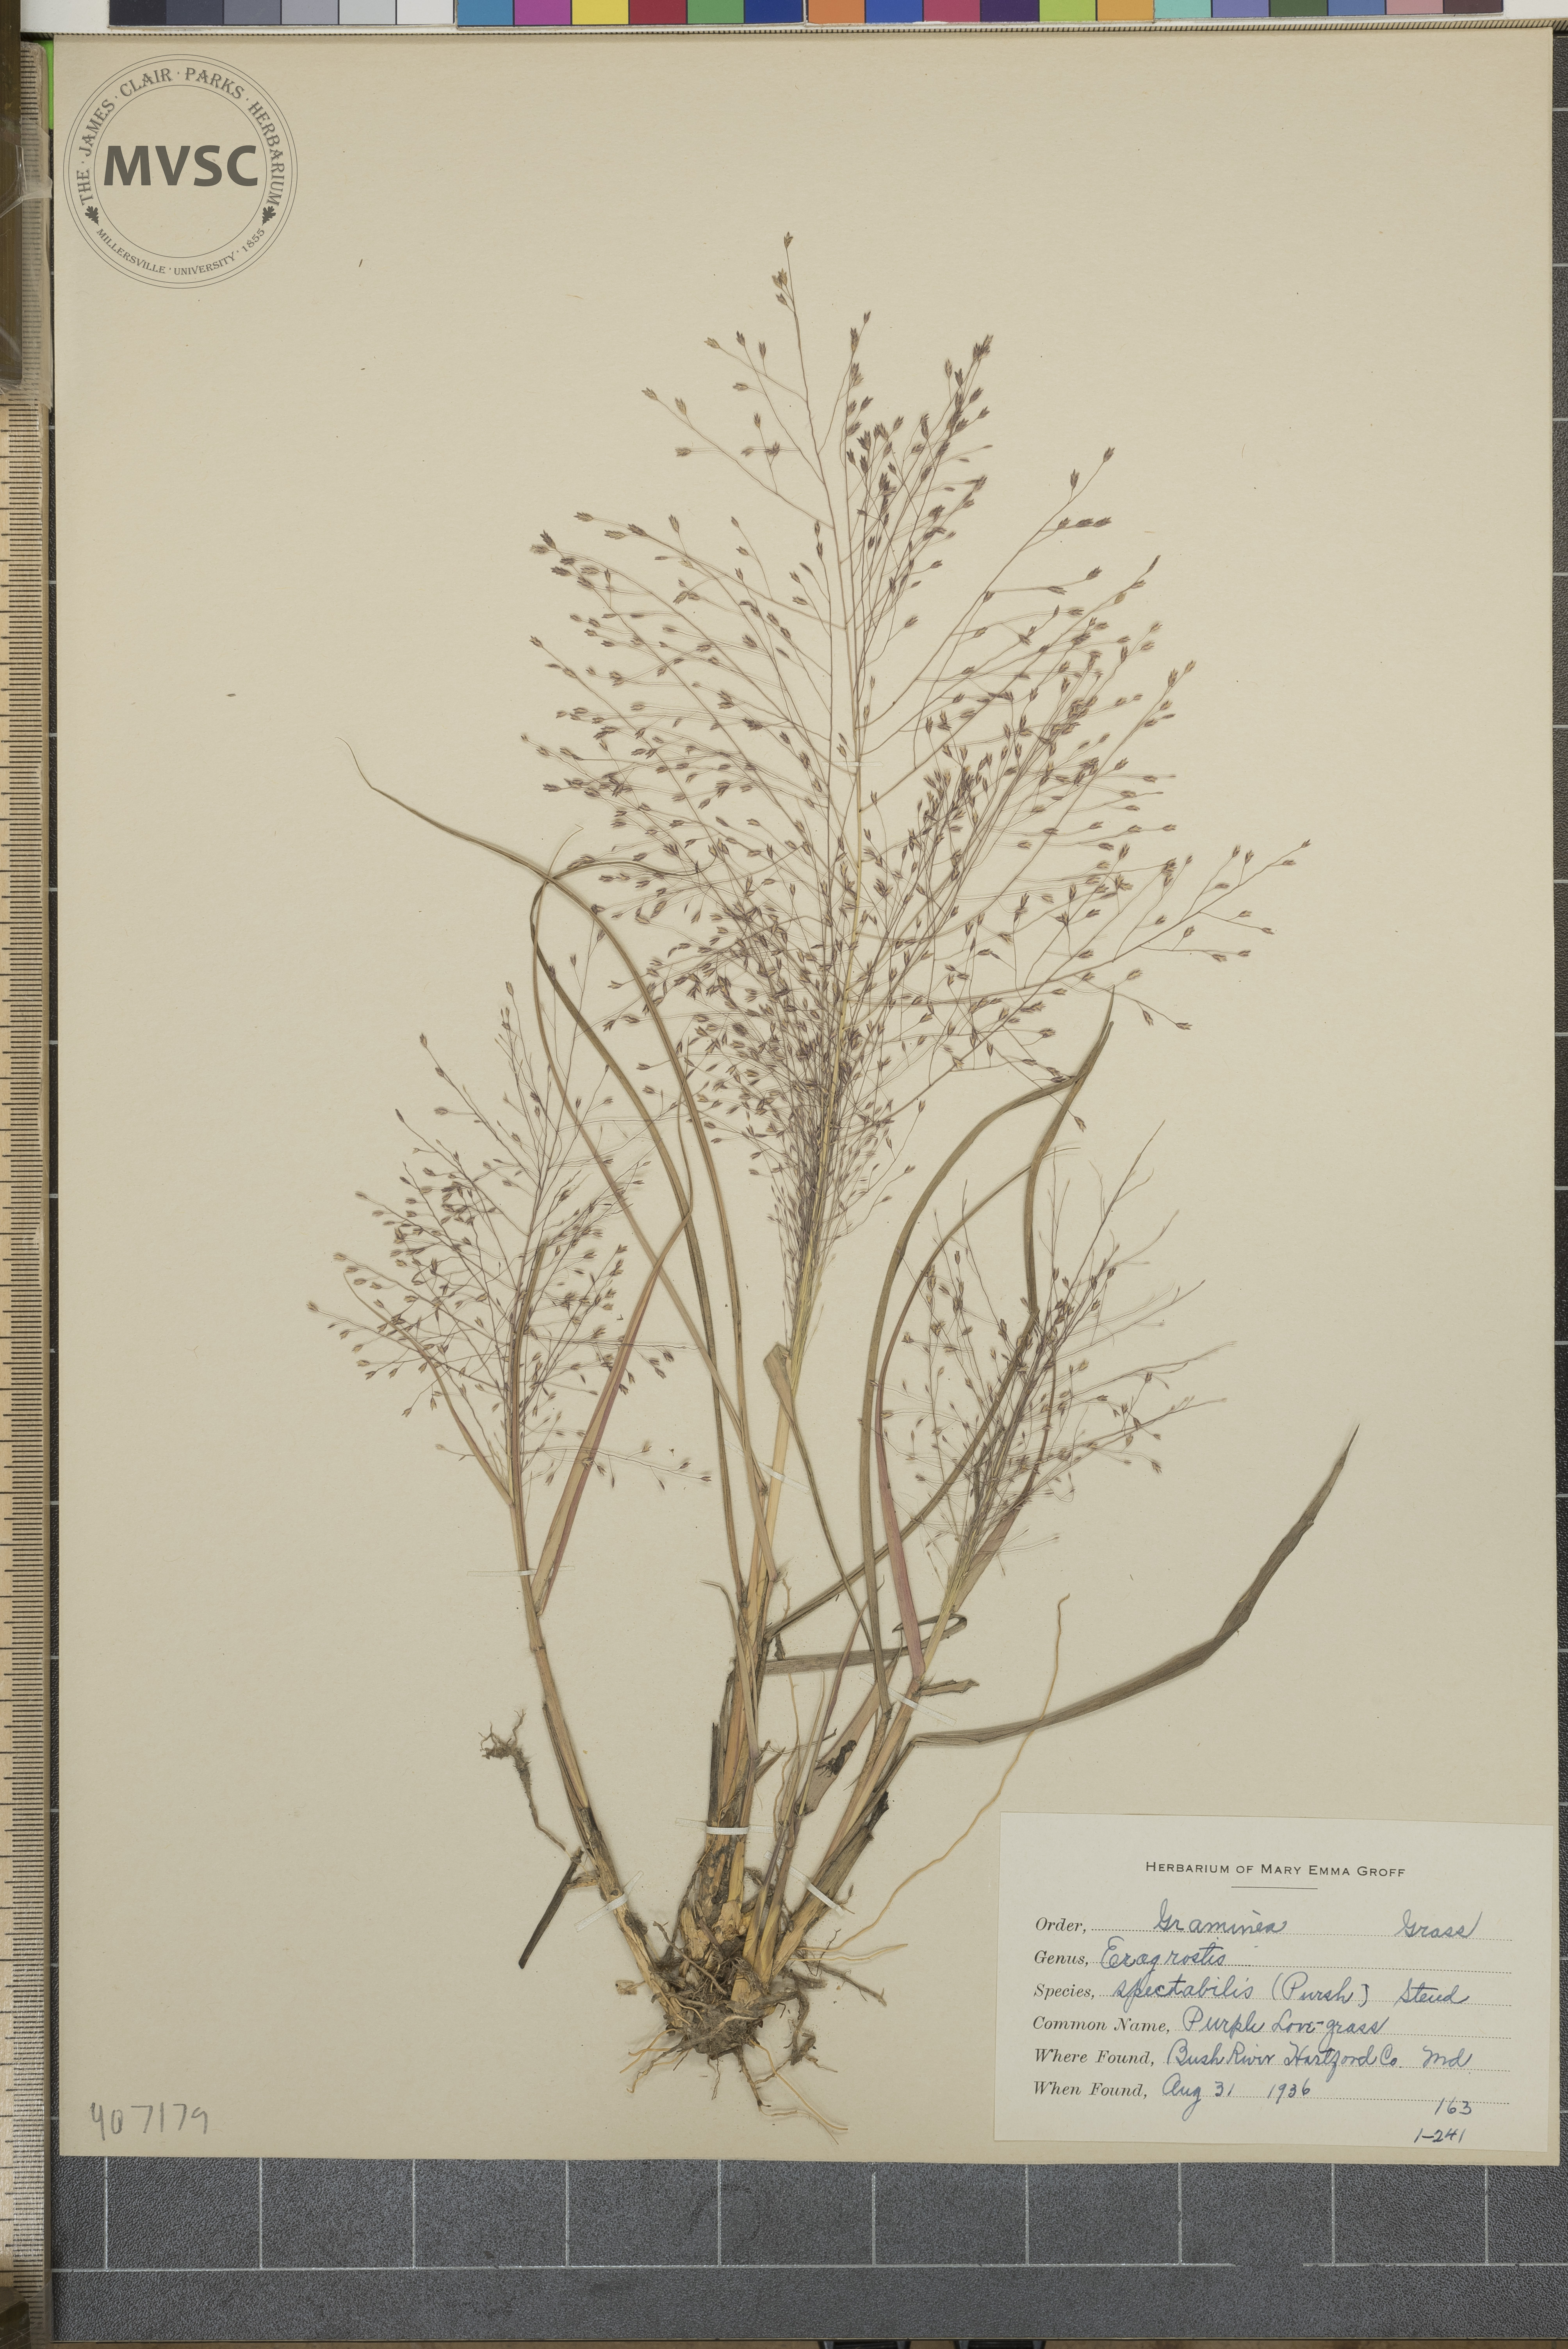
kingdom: Plantae
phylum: Tracheophyta
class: Liliopsida
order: Poales
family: Poaceae
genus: Eragrostis
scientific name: Eragrostis spectabilis
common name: Petticoat-climber
